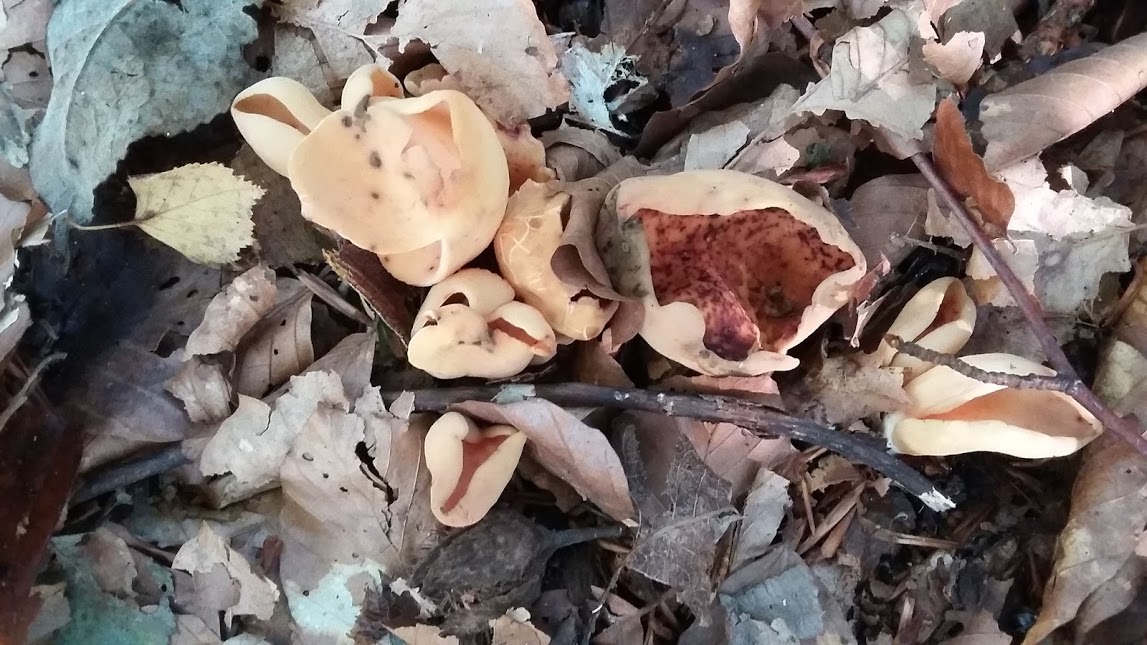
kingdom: Fungi
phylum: Ascomycota
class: Pezizomycetes
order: Pezizales
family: Otideaceae
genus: Otidea
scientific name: Otidea onotica
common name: æsel-ørebæger
